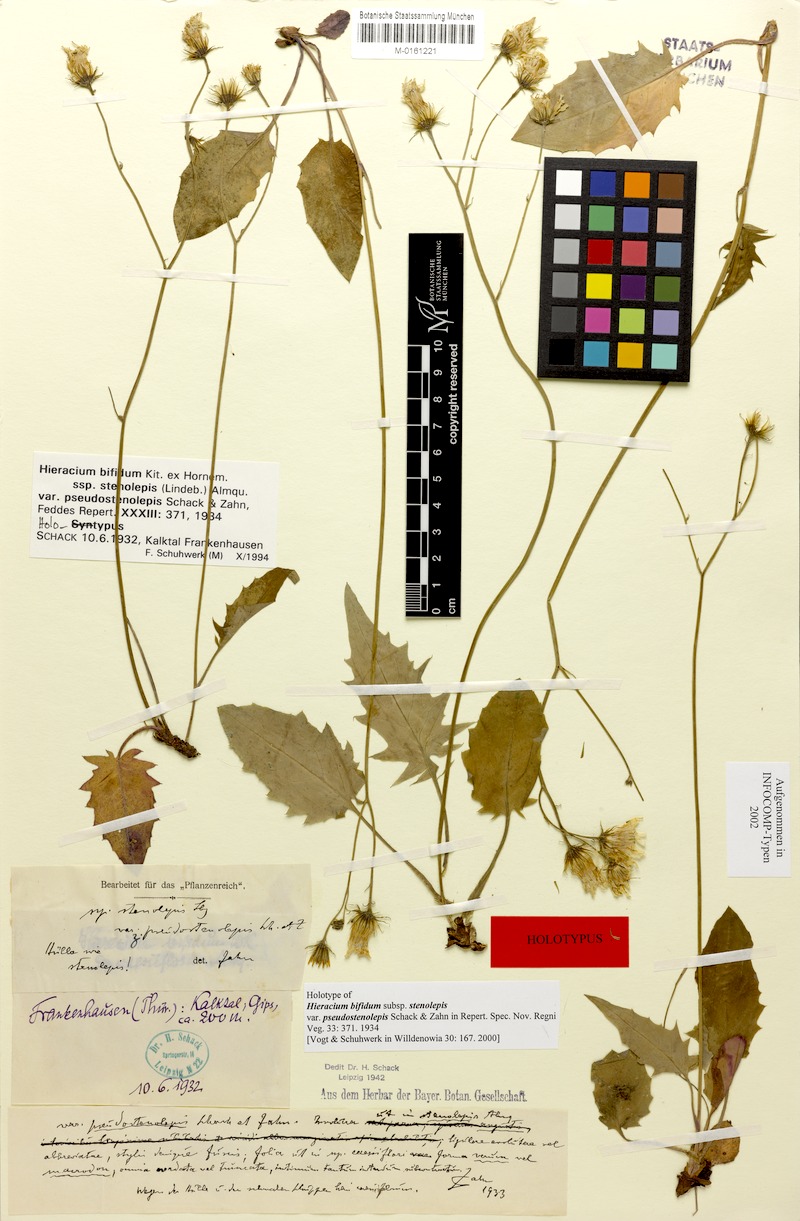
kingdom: Plantae
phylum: Tracheophyta
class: Magnoliopsida
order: Asterales
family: Asteraceae
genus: Hieracium
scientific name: Hieracium bifidum
